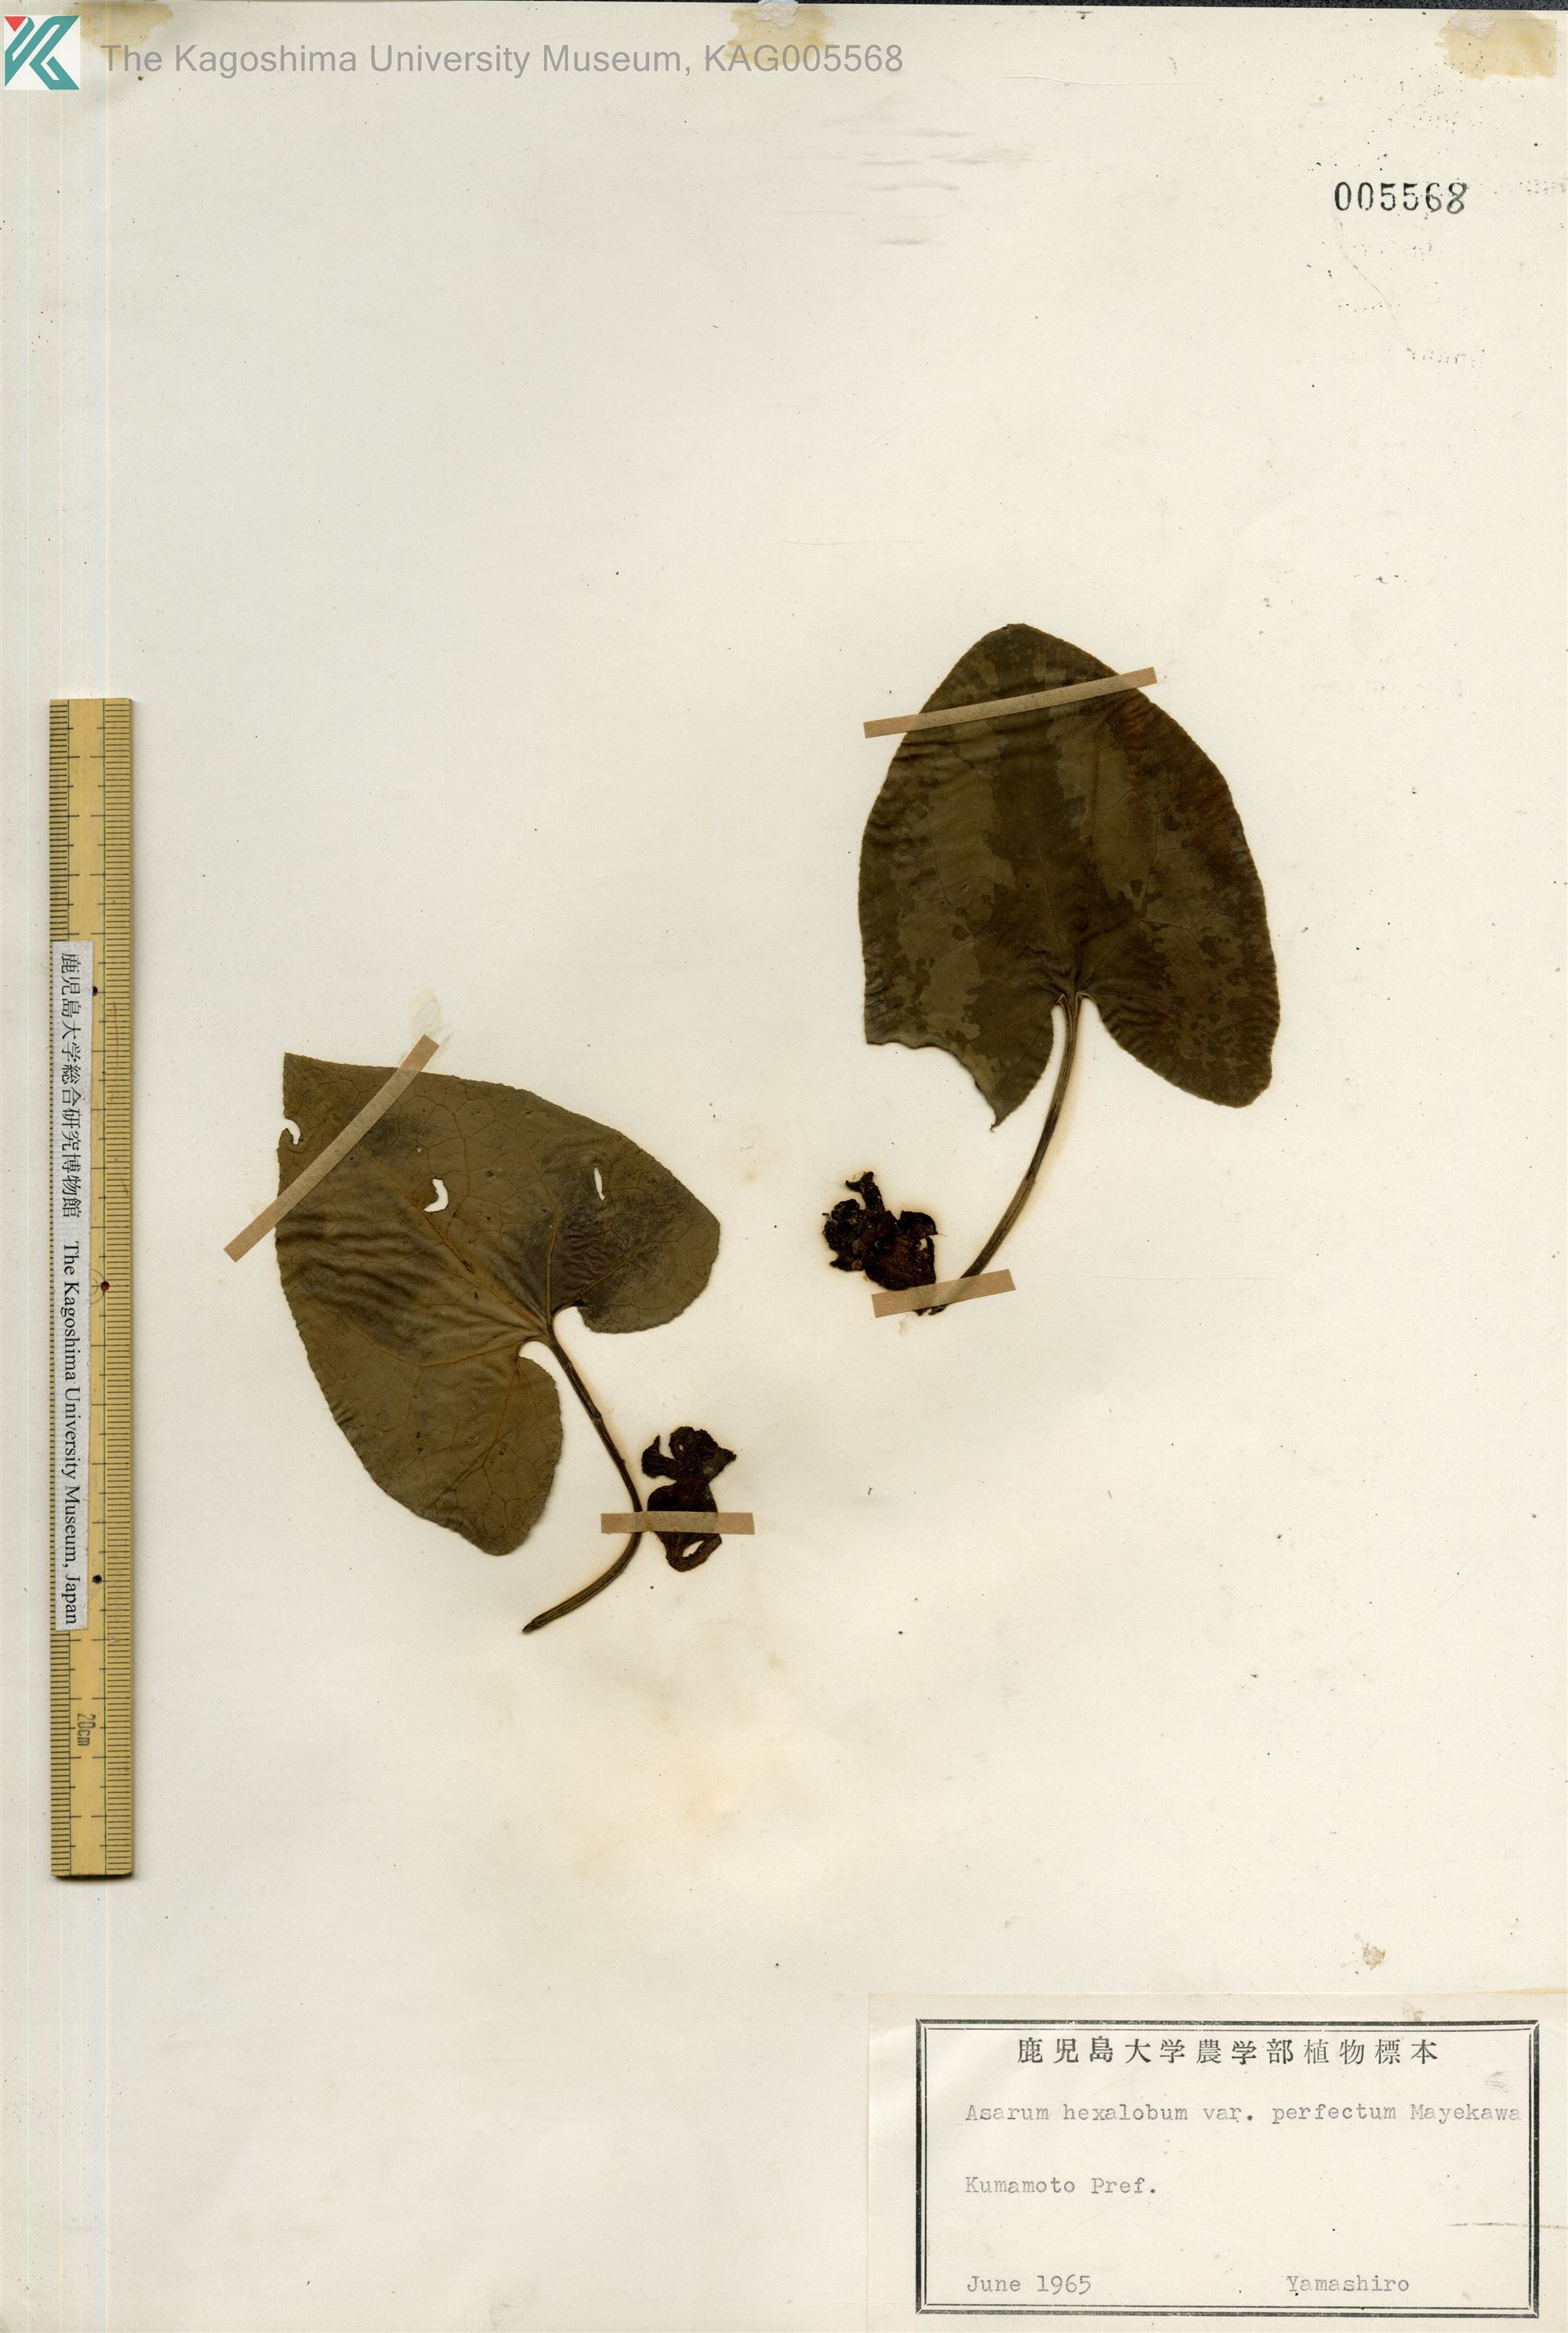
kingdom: Plantae
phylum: Tracheophyta
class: Magnoliopsida
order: Piperales
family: Aristolochiaceae
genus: Asarum
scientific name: Asarum hexalobum
